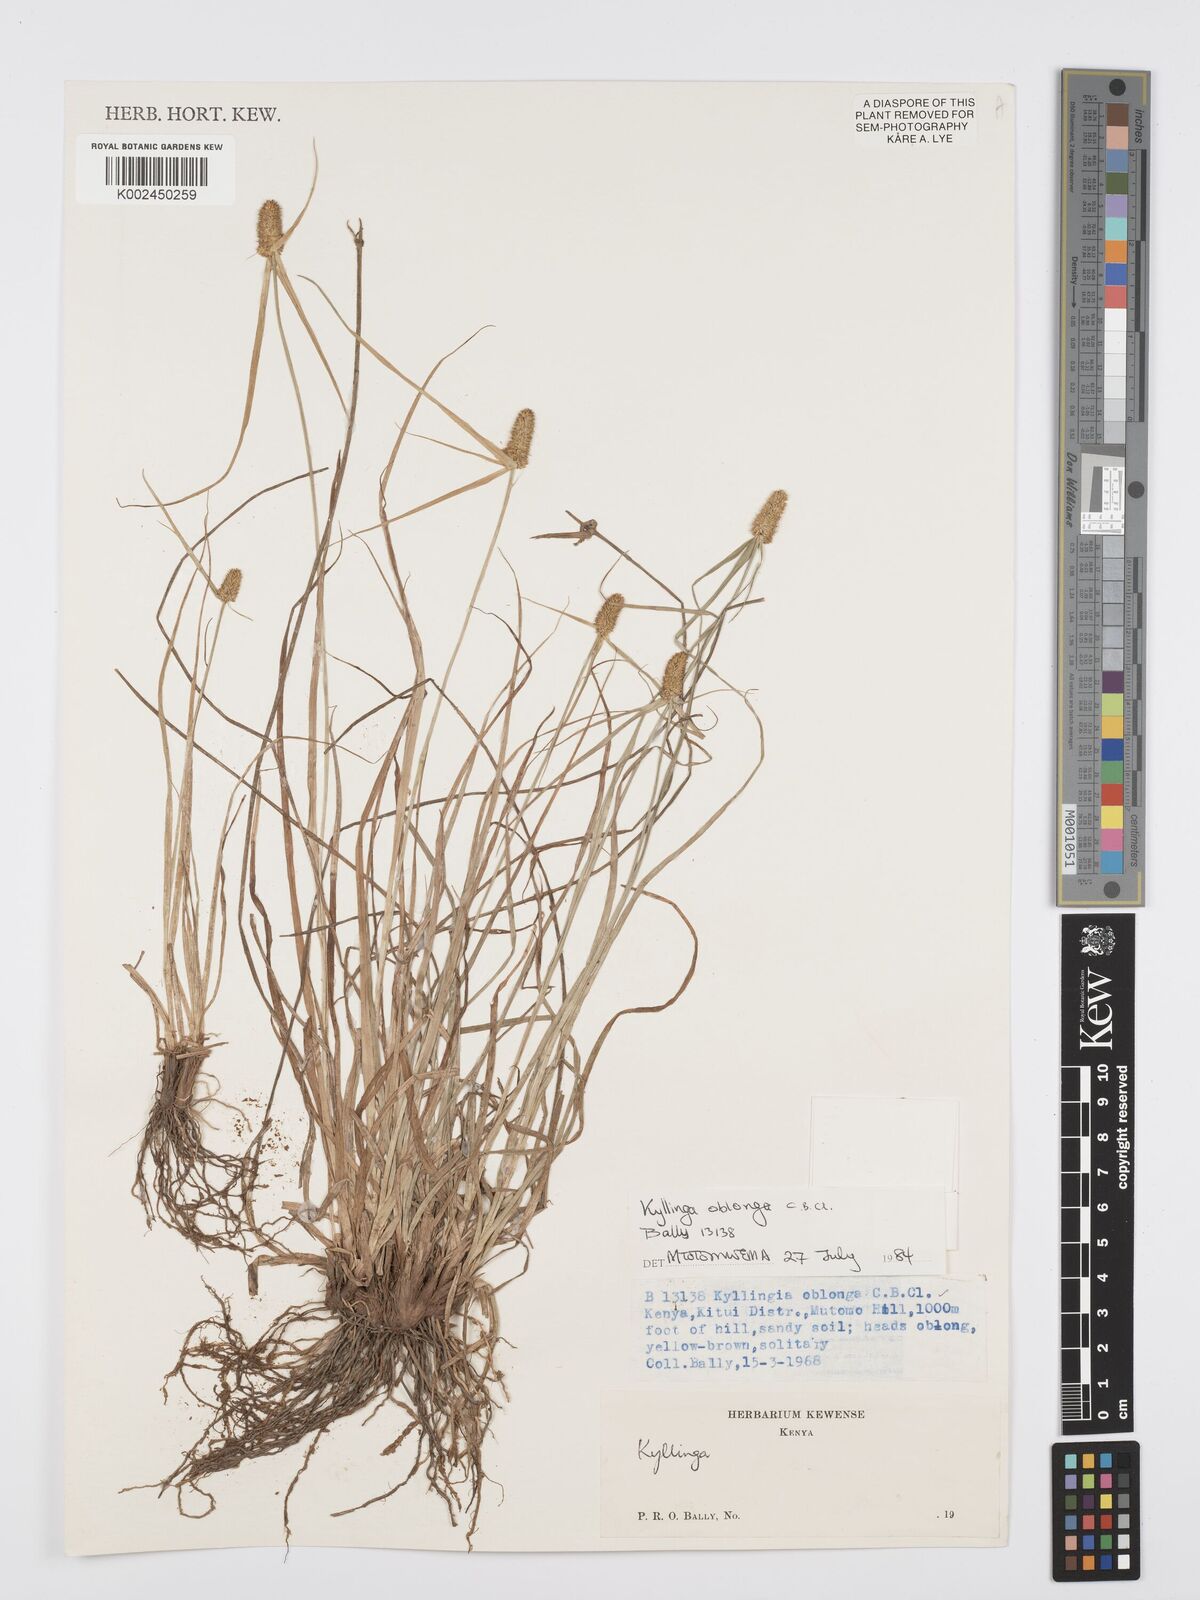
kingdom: Plantae
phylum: Tracheophyta
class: Liliopsida
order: Poales
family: Cyperaceae
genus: Cyperus
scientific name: Cyperus
